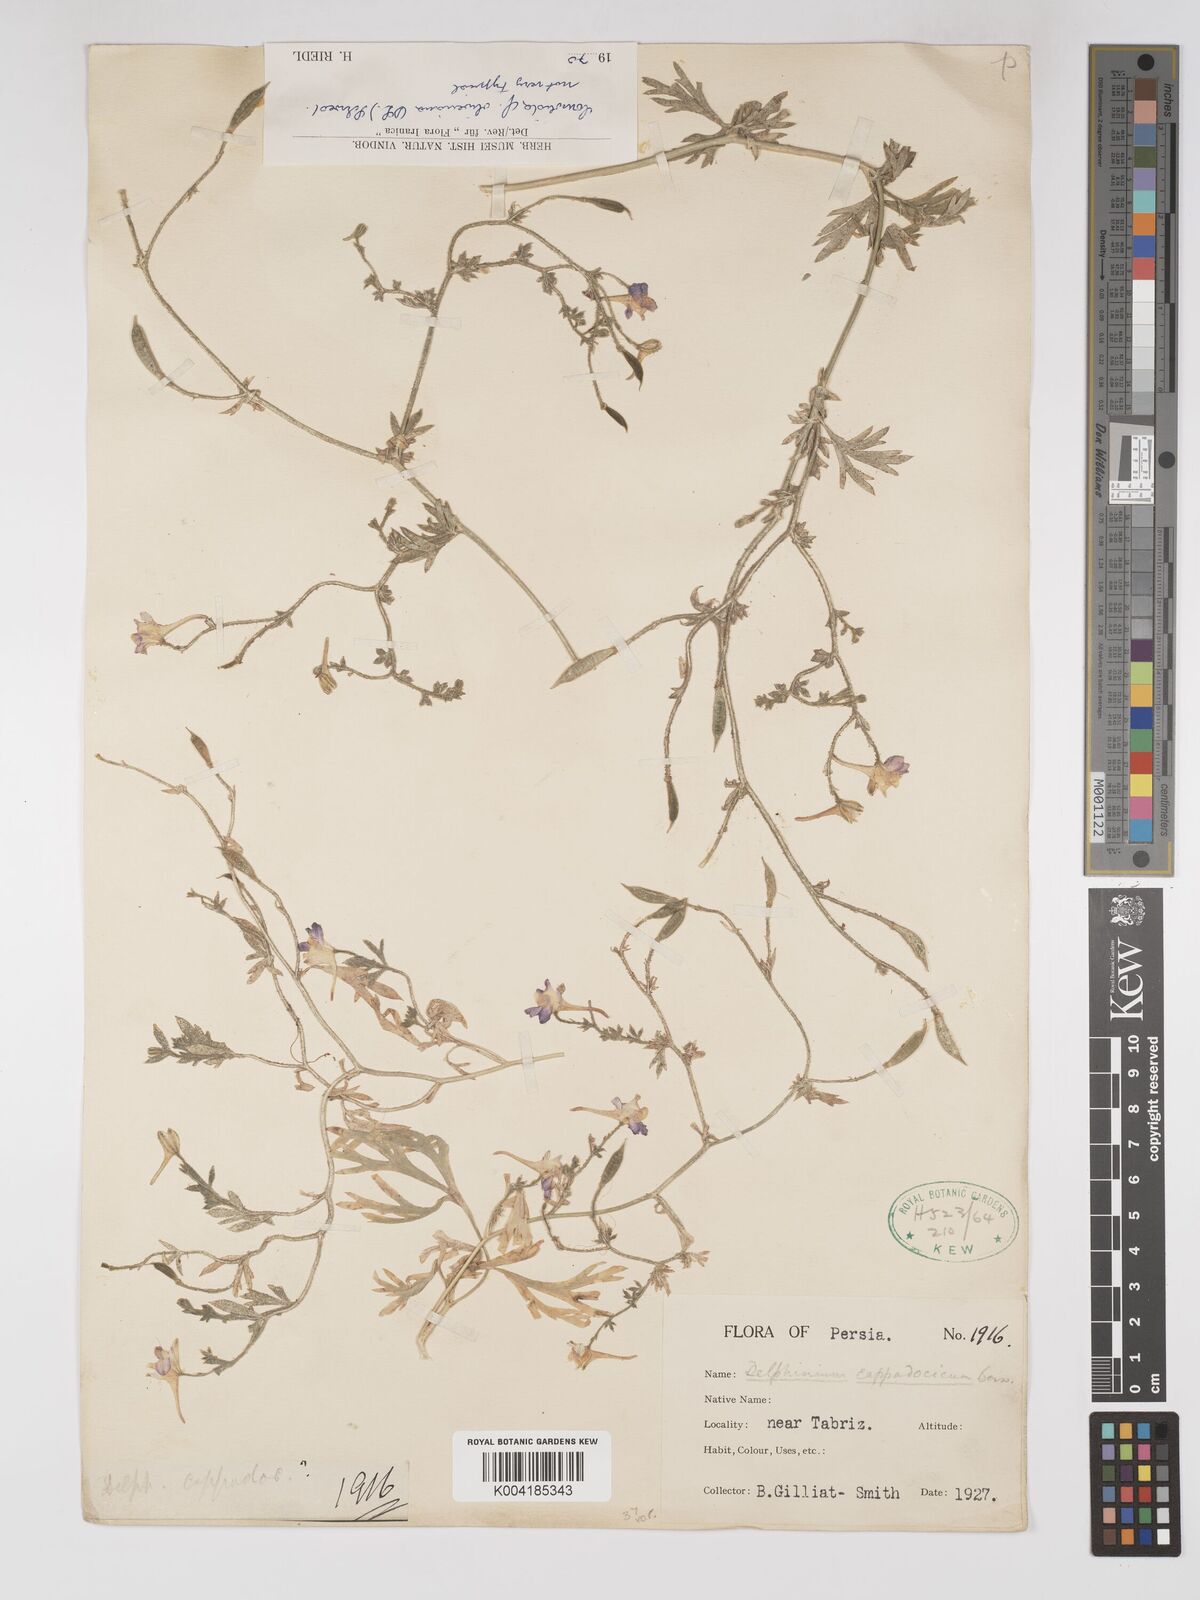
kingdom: Plantae
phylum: Tracheophyta
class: Magnoliopsida
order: Ranunculales
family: Ranunculaceae
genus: Delphinium
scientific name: Delphinium oliverianum
